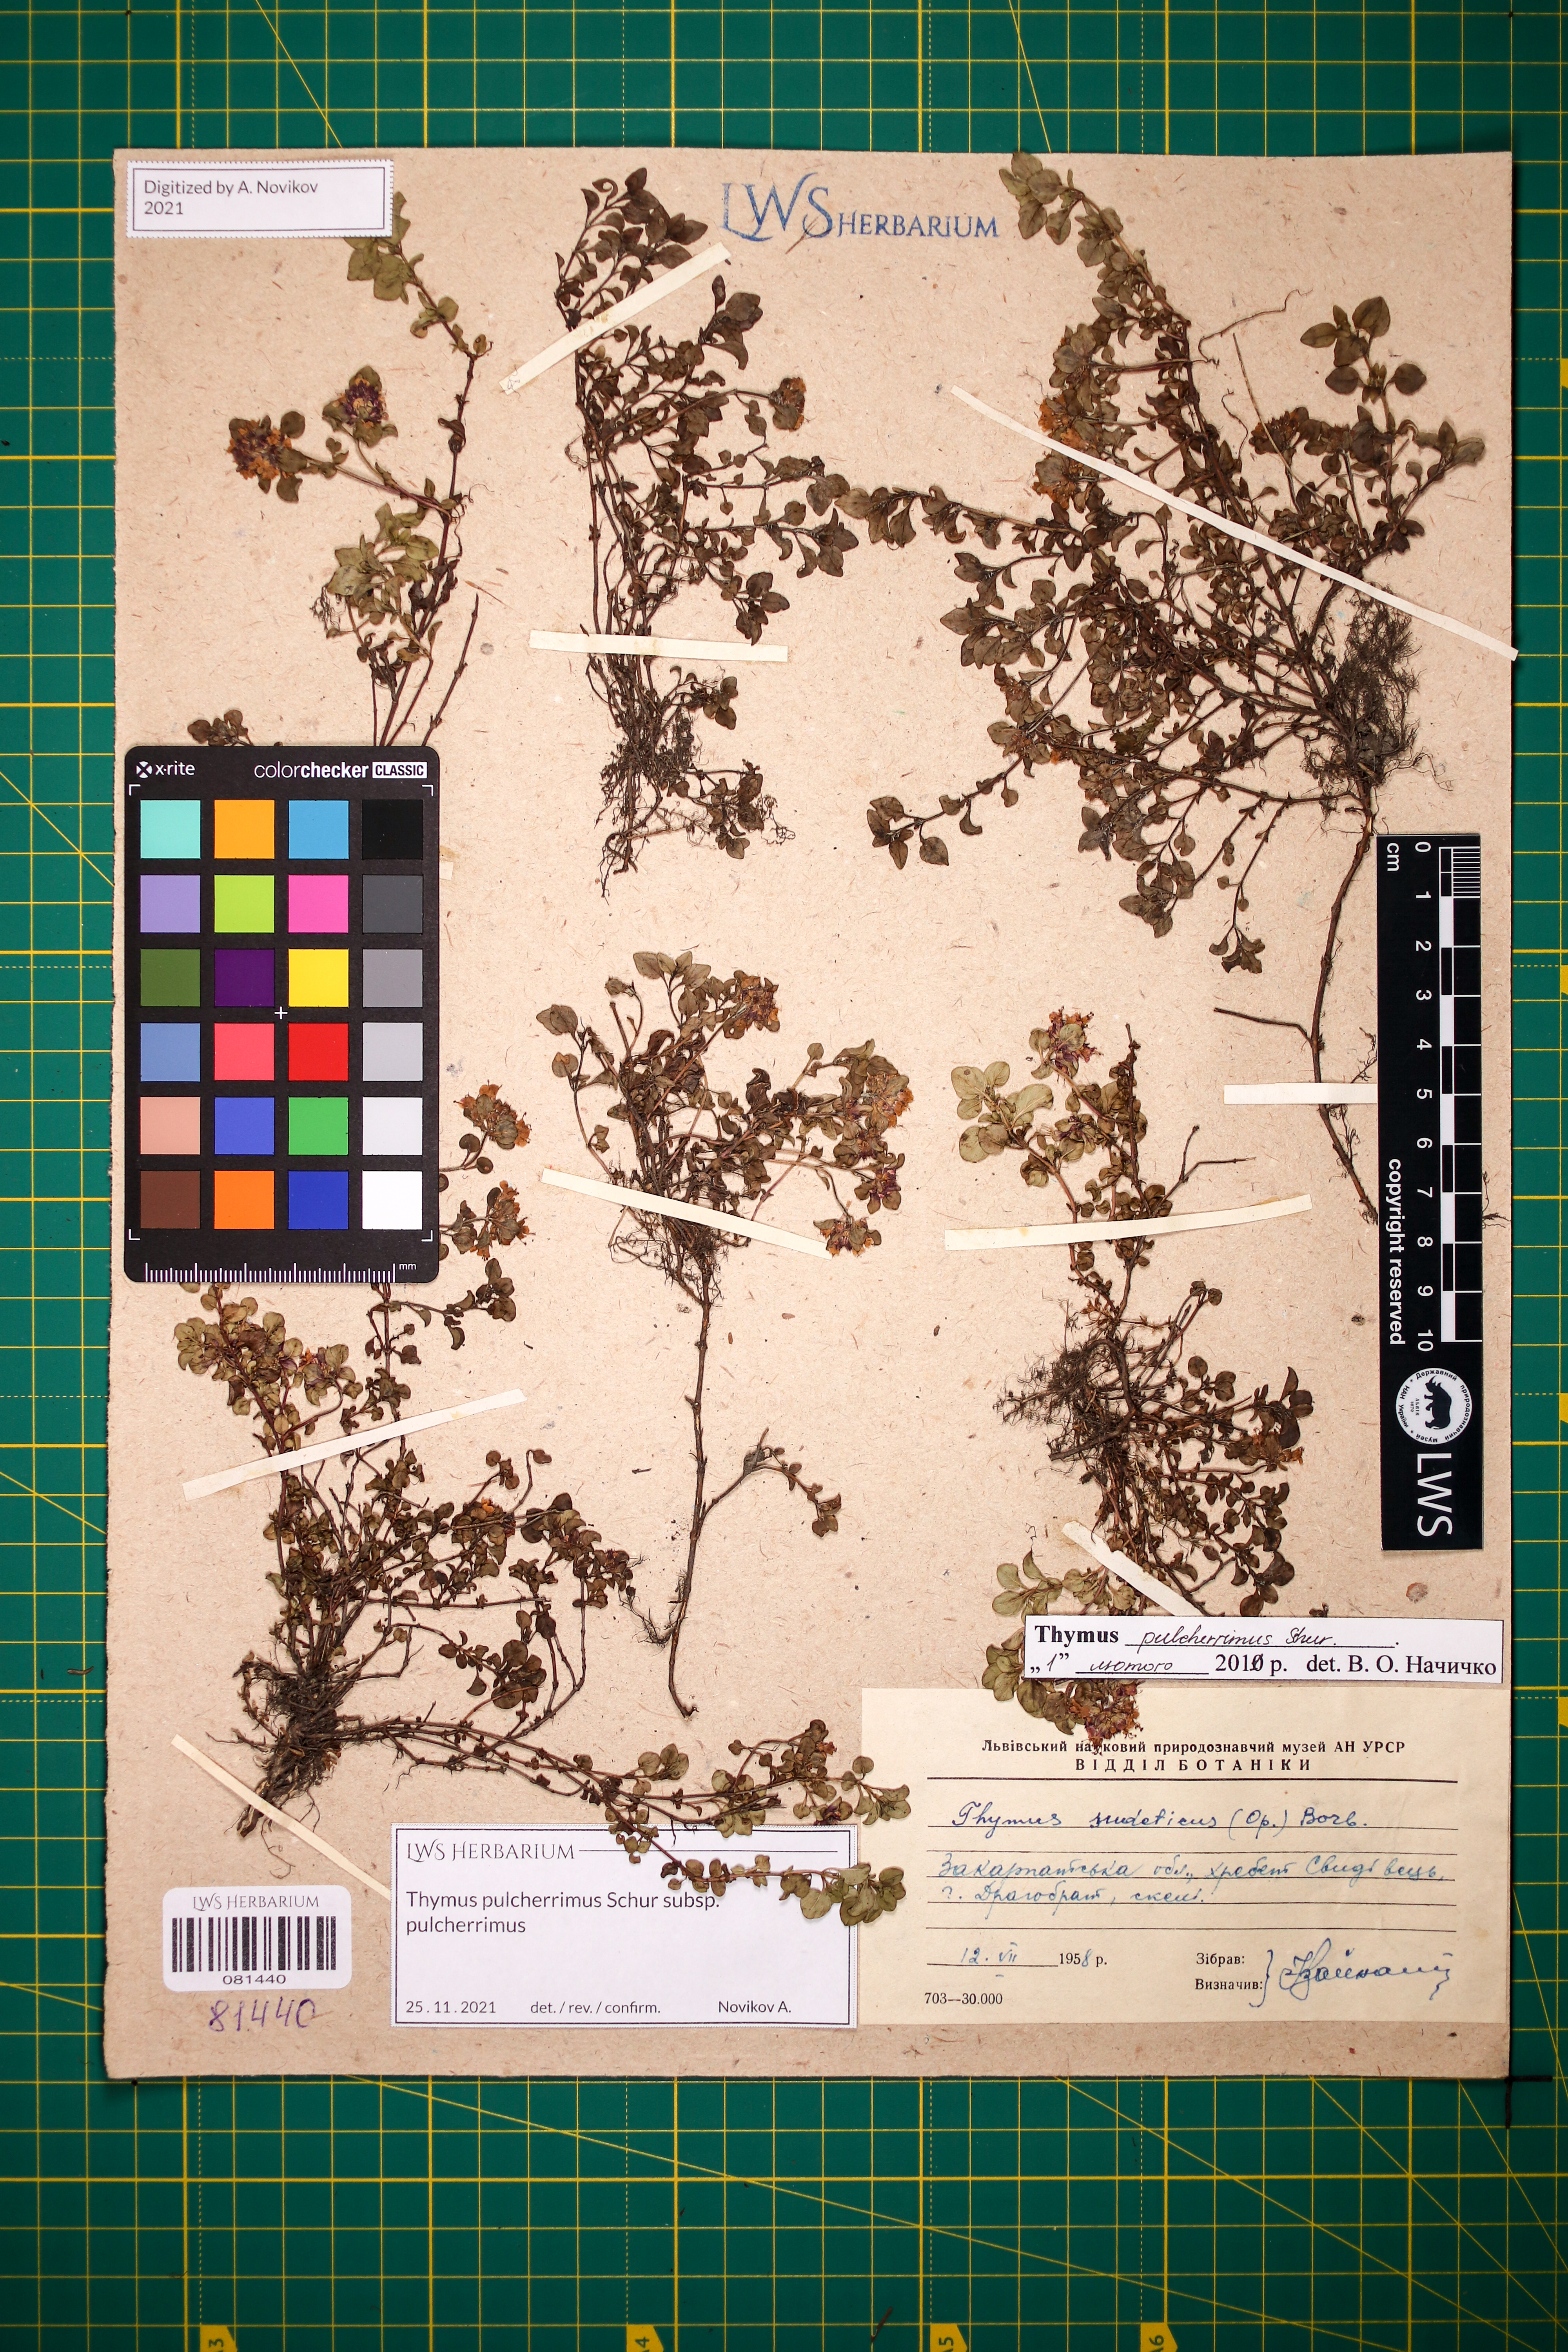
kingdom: Plantae
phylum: Tracheophyta
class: Magnoliopsida
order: Lamiales
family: Lamiaceae
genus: Thymus
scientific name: Thymus pulcherrimus
